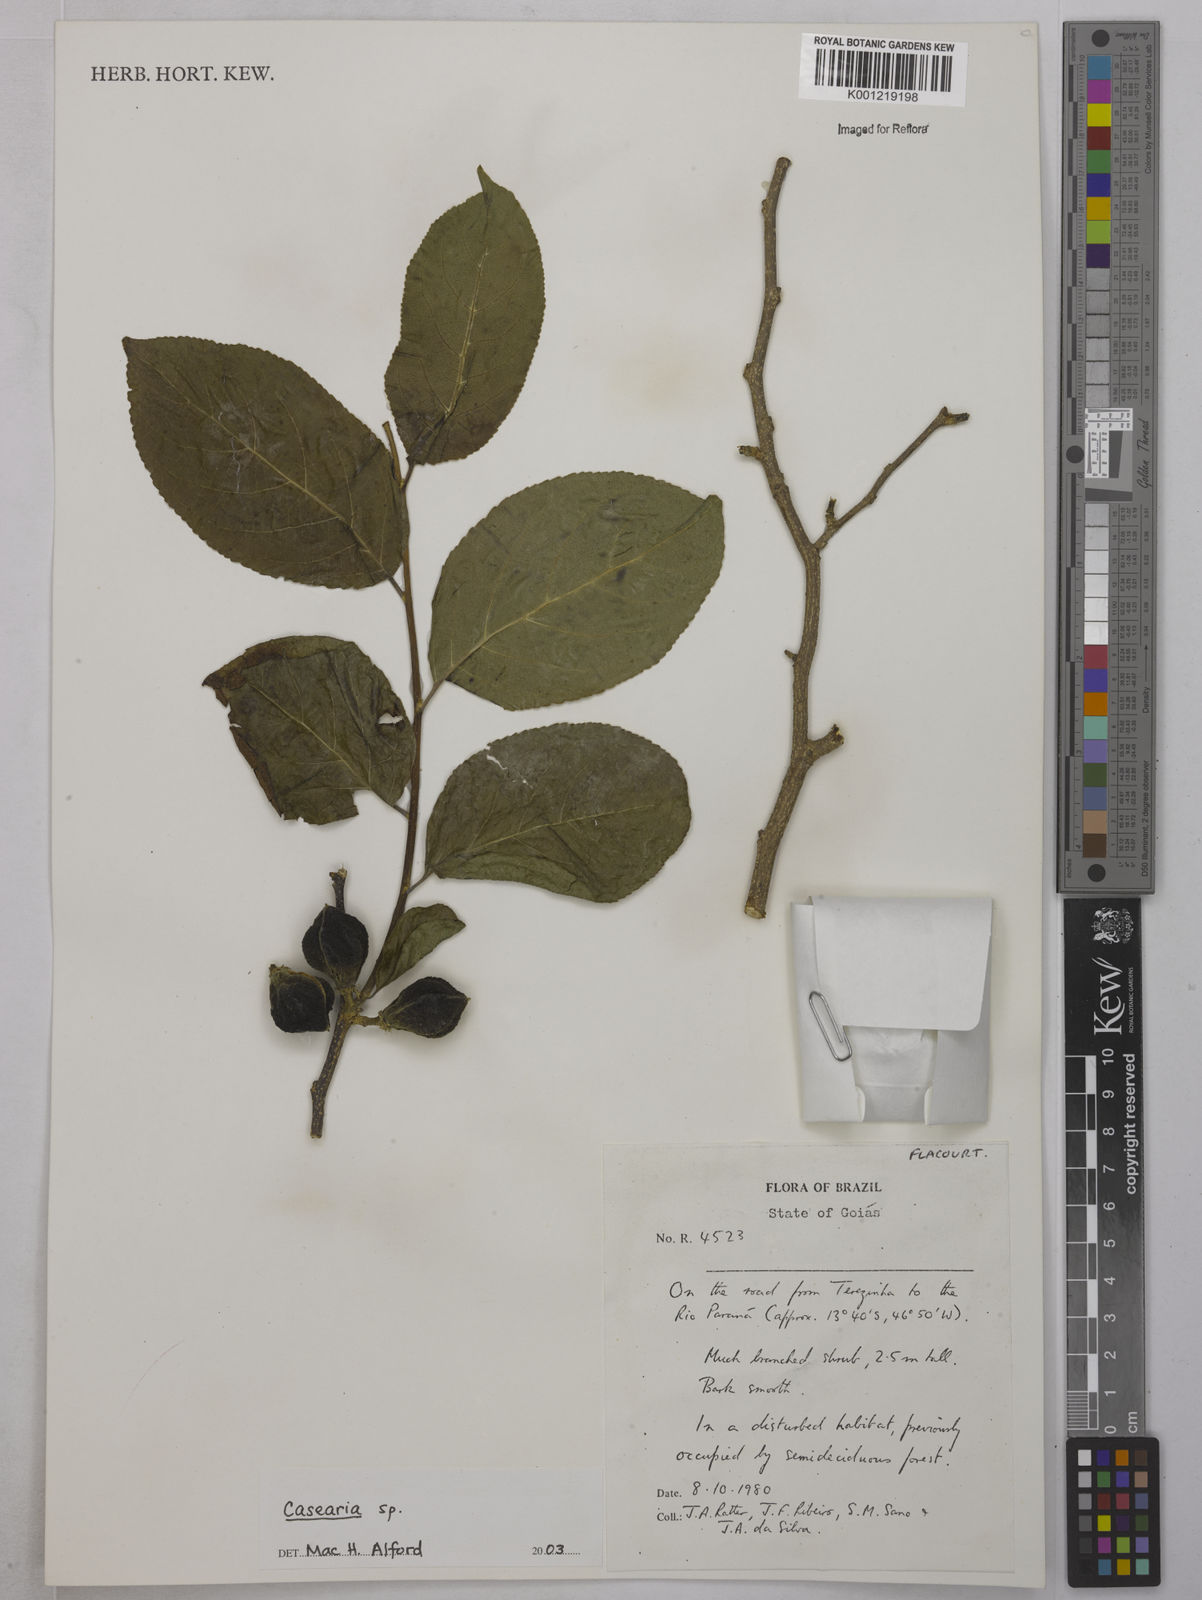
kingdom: Plantae
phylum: Tracheophyta
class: Magnoliopsida
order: Malpighiales
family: Salicaceae
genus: Casearia
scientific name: Casearia
